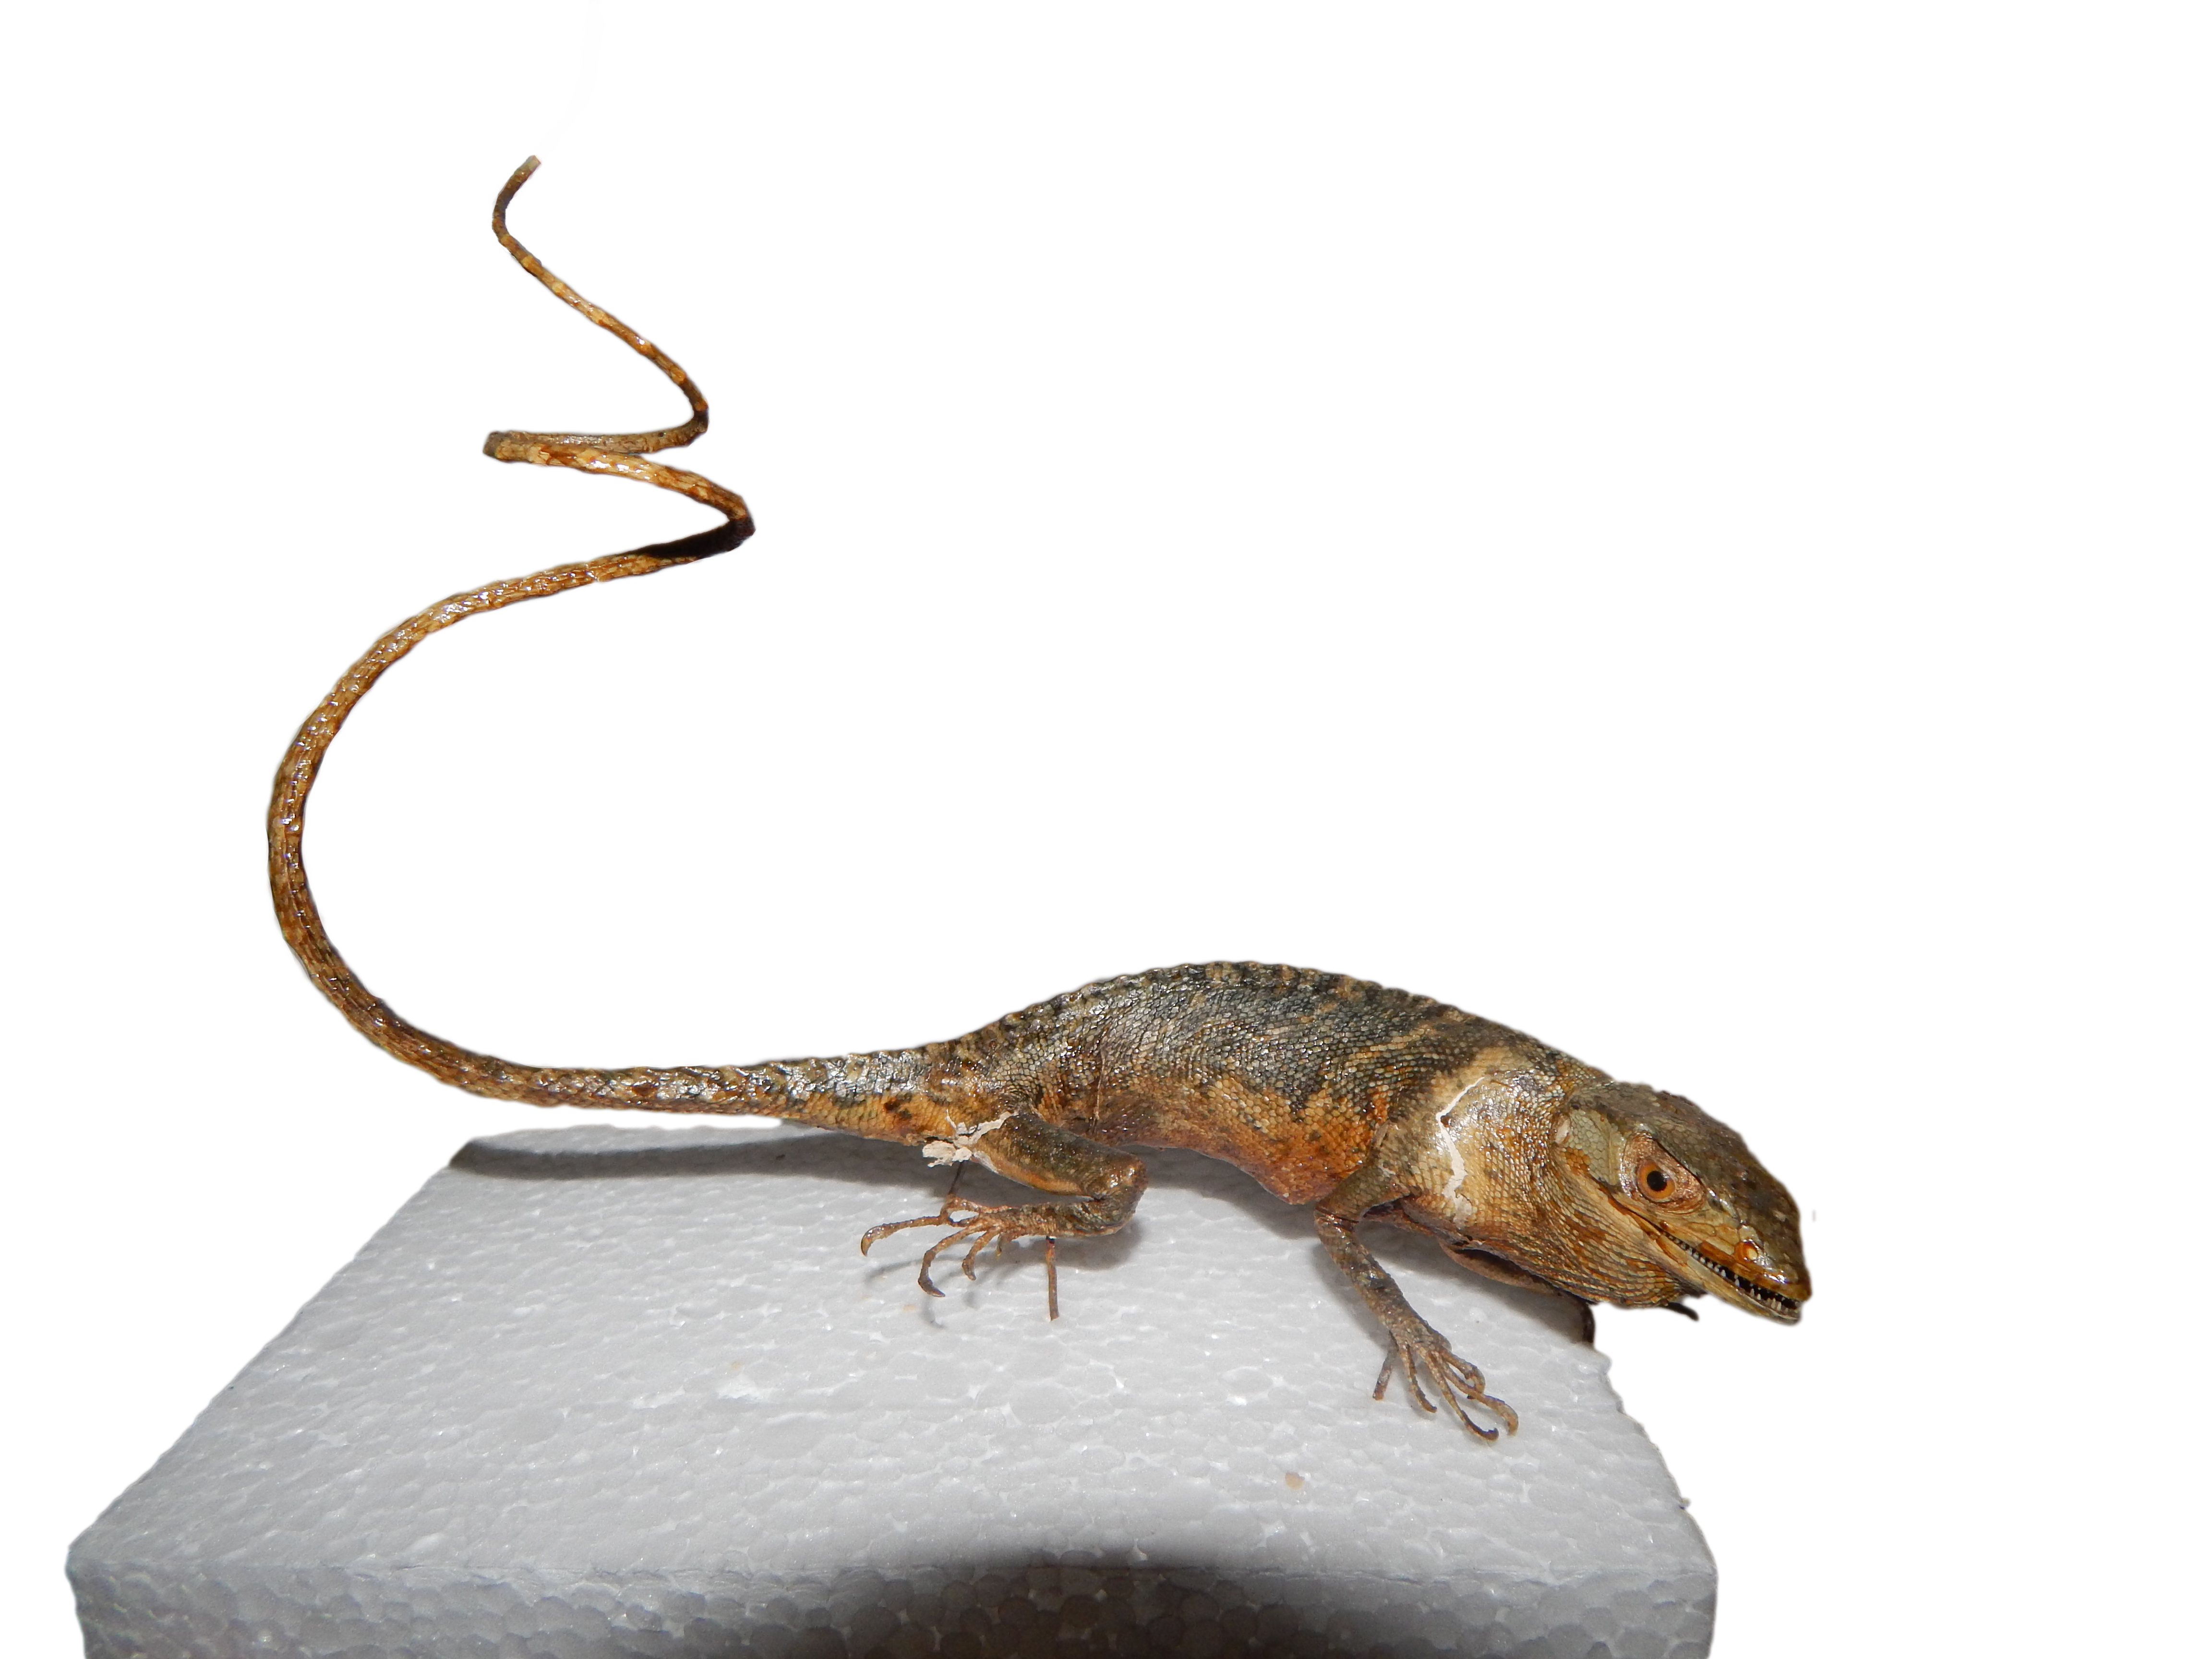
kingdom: Animalia
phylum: Chordata
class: Squamata
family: Polychrotidae
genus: Polychrus
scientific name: Polychrus marmoratus
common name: Many-colored bush anole
